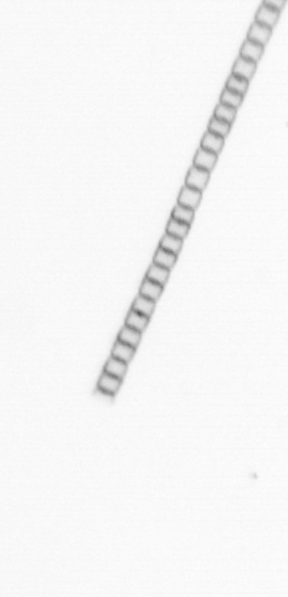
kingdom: Chromista
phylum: Ochrophyta
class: Bacillariophyceae
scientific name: Bacillariophyceae
